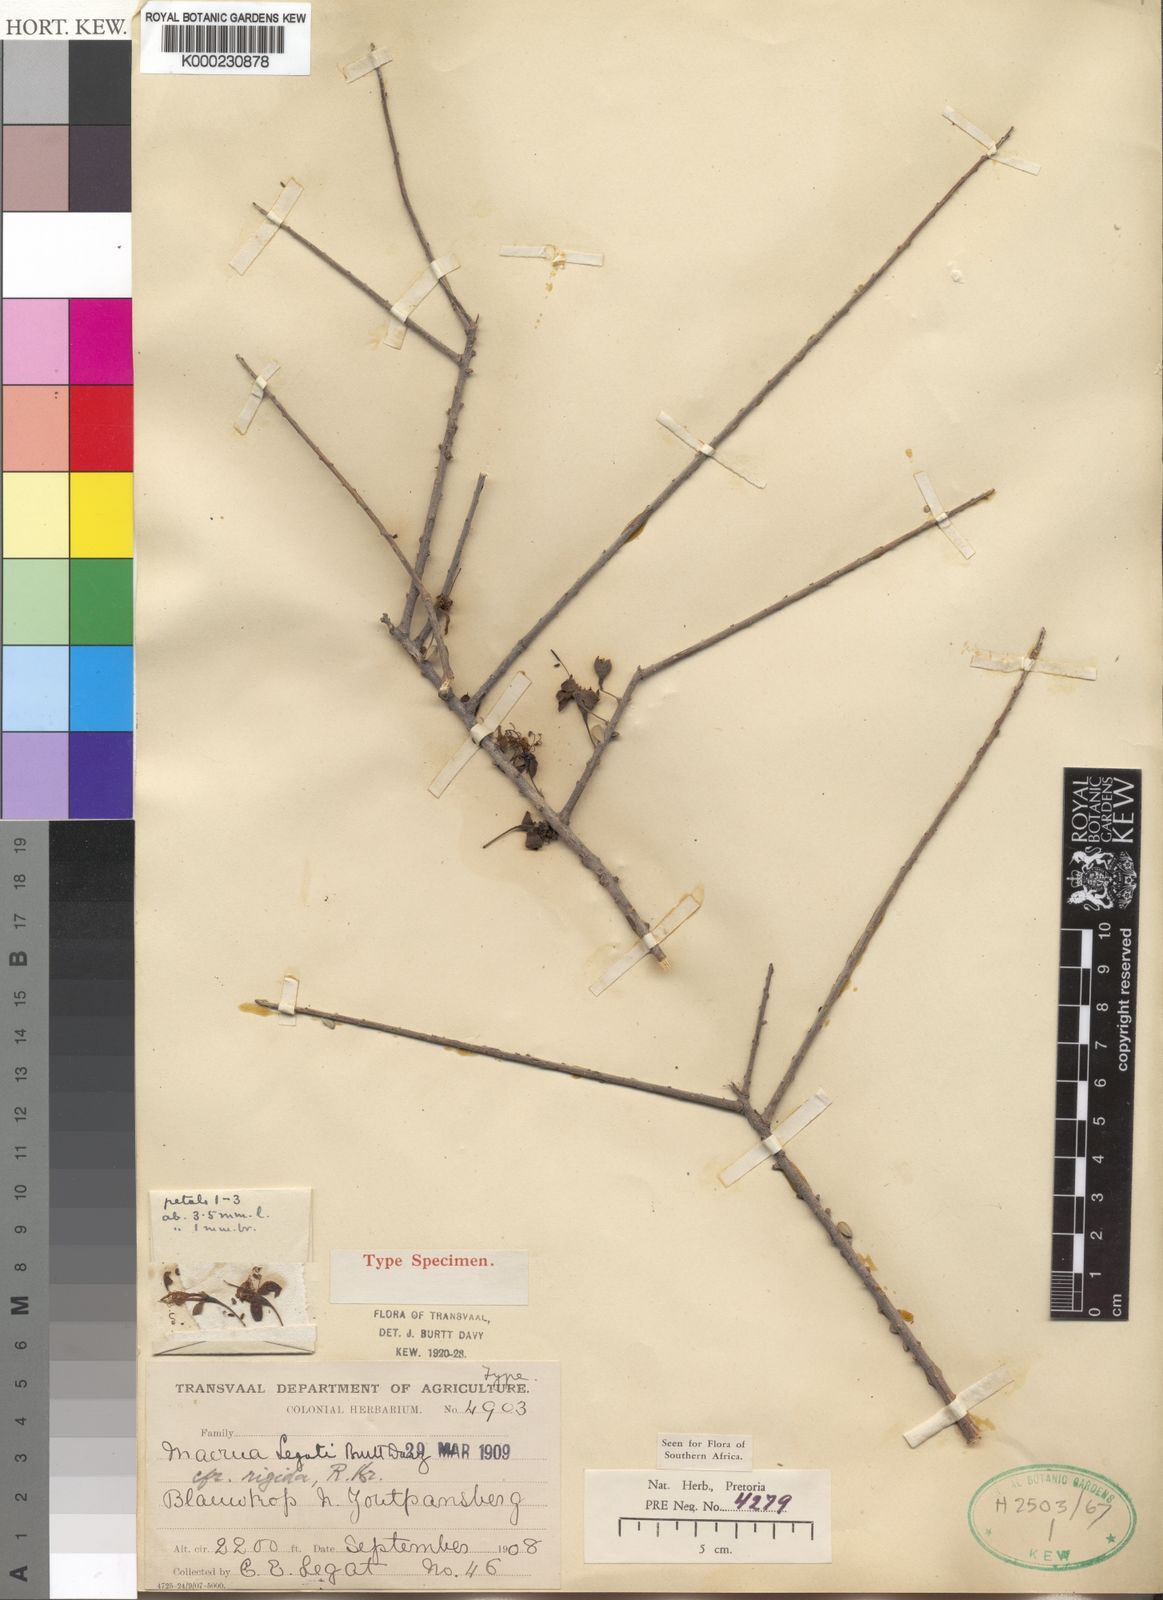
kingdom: Plantae
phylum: Tracheophyta
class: Magnoliopsida
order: Brassicales
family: Capparaceae
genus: Maerua
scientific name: Maerua parvifolia
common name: Dwarf bush-cherry
